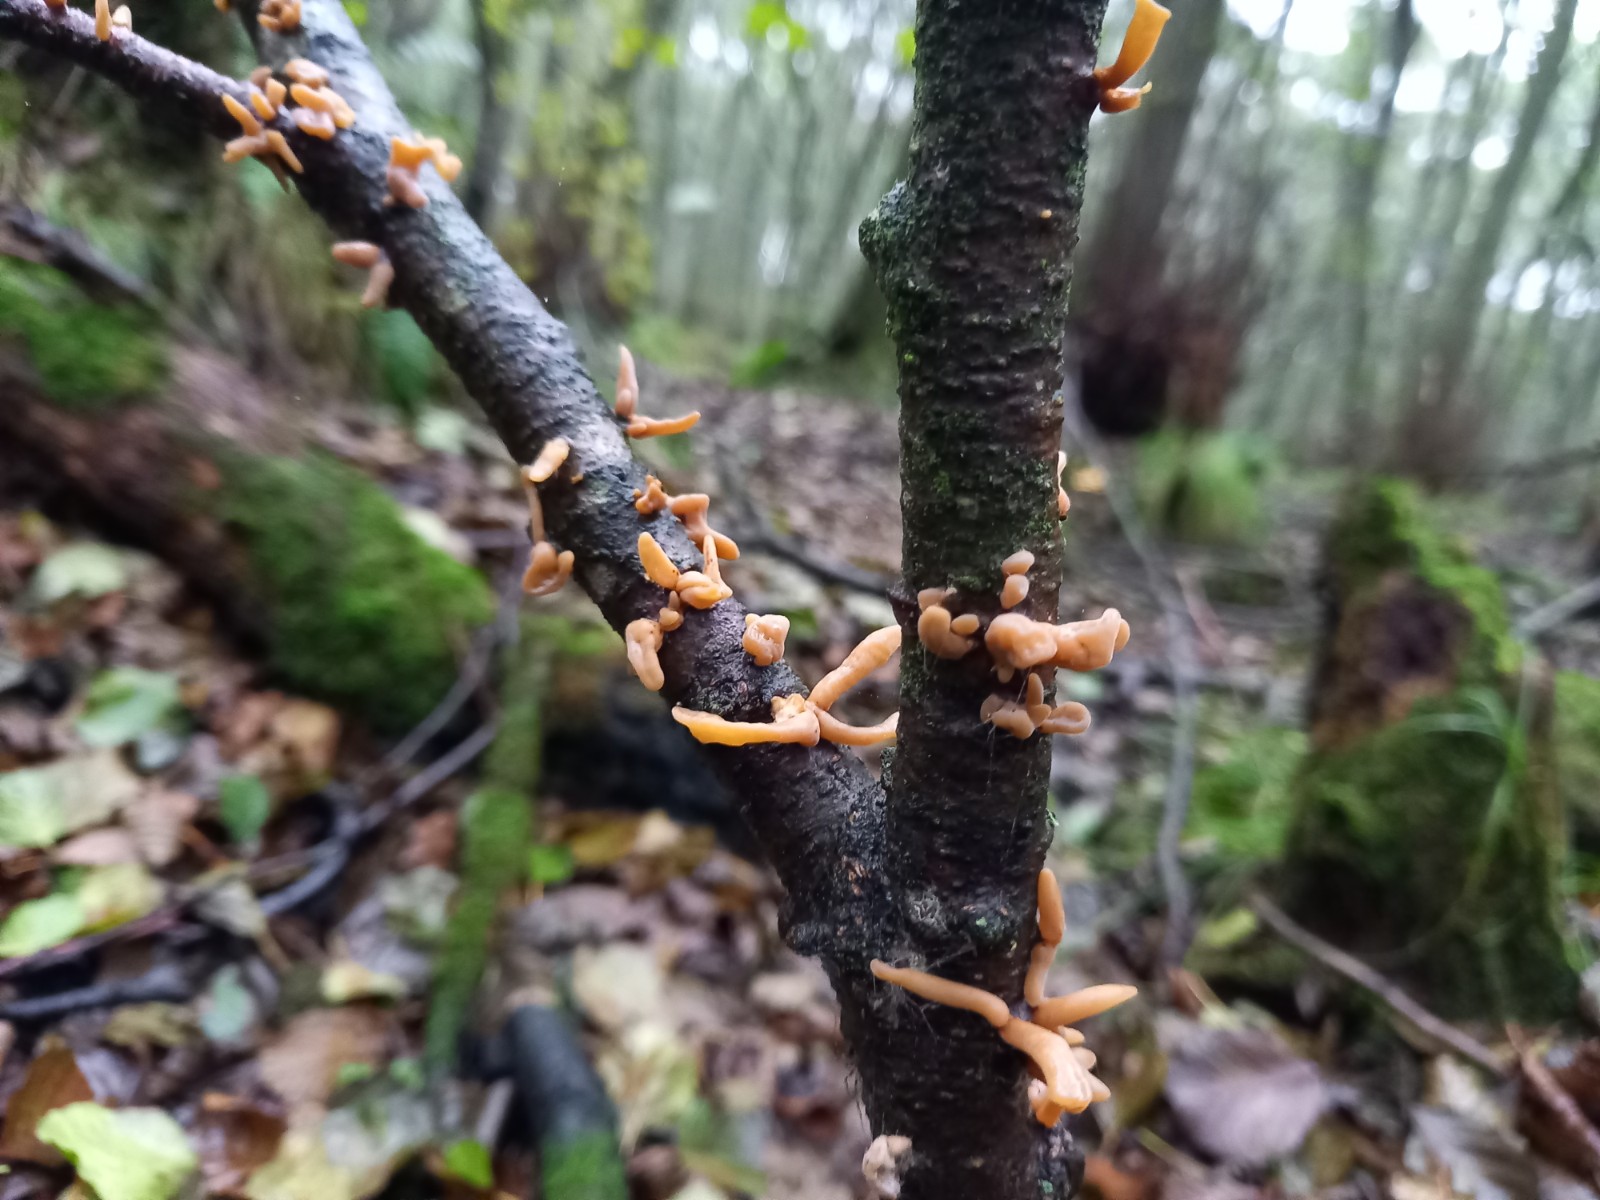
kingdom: Fungi
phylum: Basidiomycota
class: Agaricomycetes
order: Agaricales
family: Typhulaceae
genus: Typhula
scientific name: Typhula contorta
